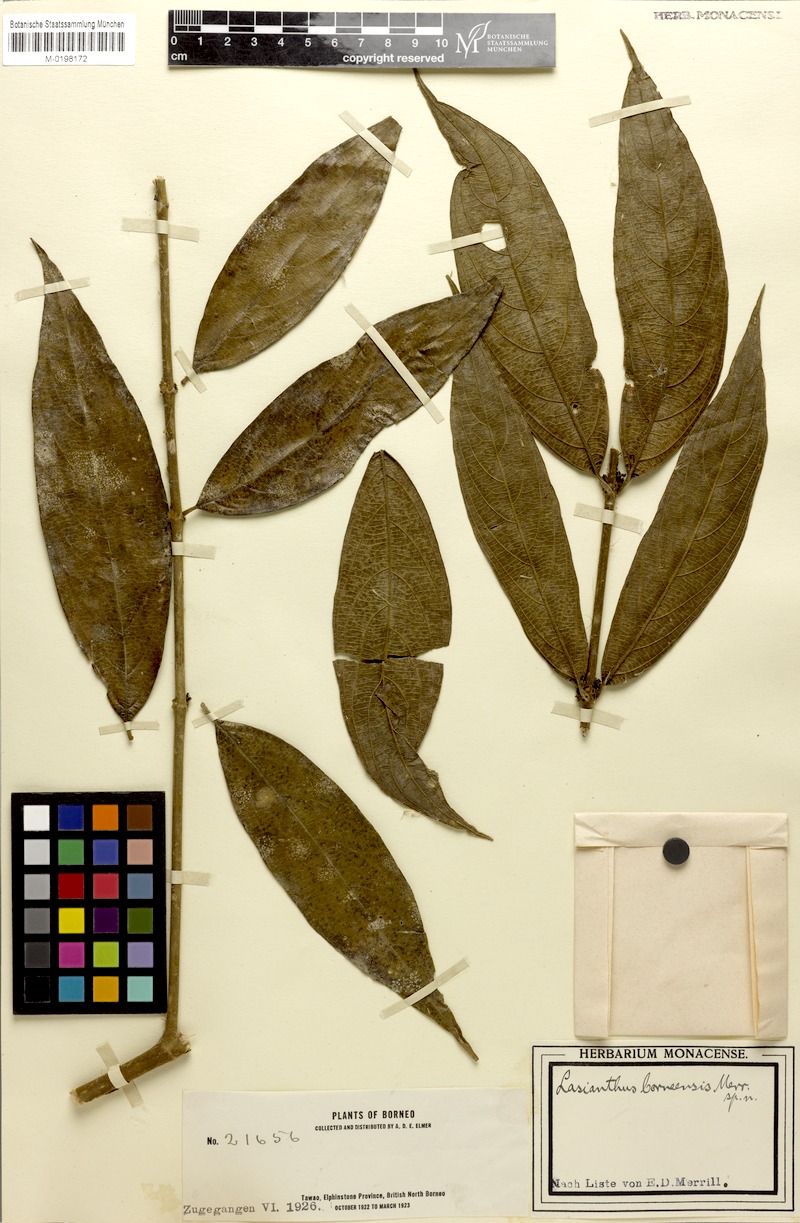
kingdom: Plantae
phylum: Tracheophyta
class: Magnoliopsida
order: Gentianales
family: Rubiaceae
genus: Lasianthus
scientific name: Lasianthus borneensis
